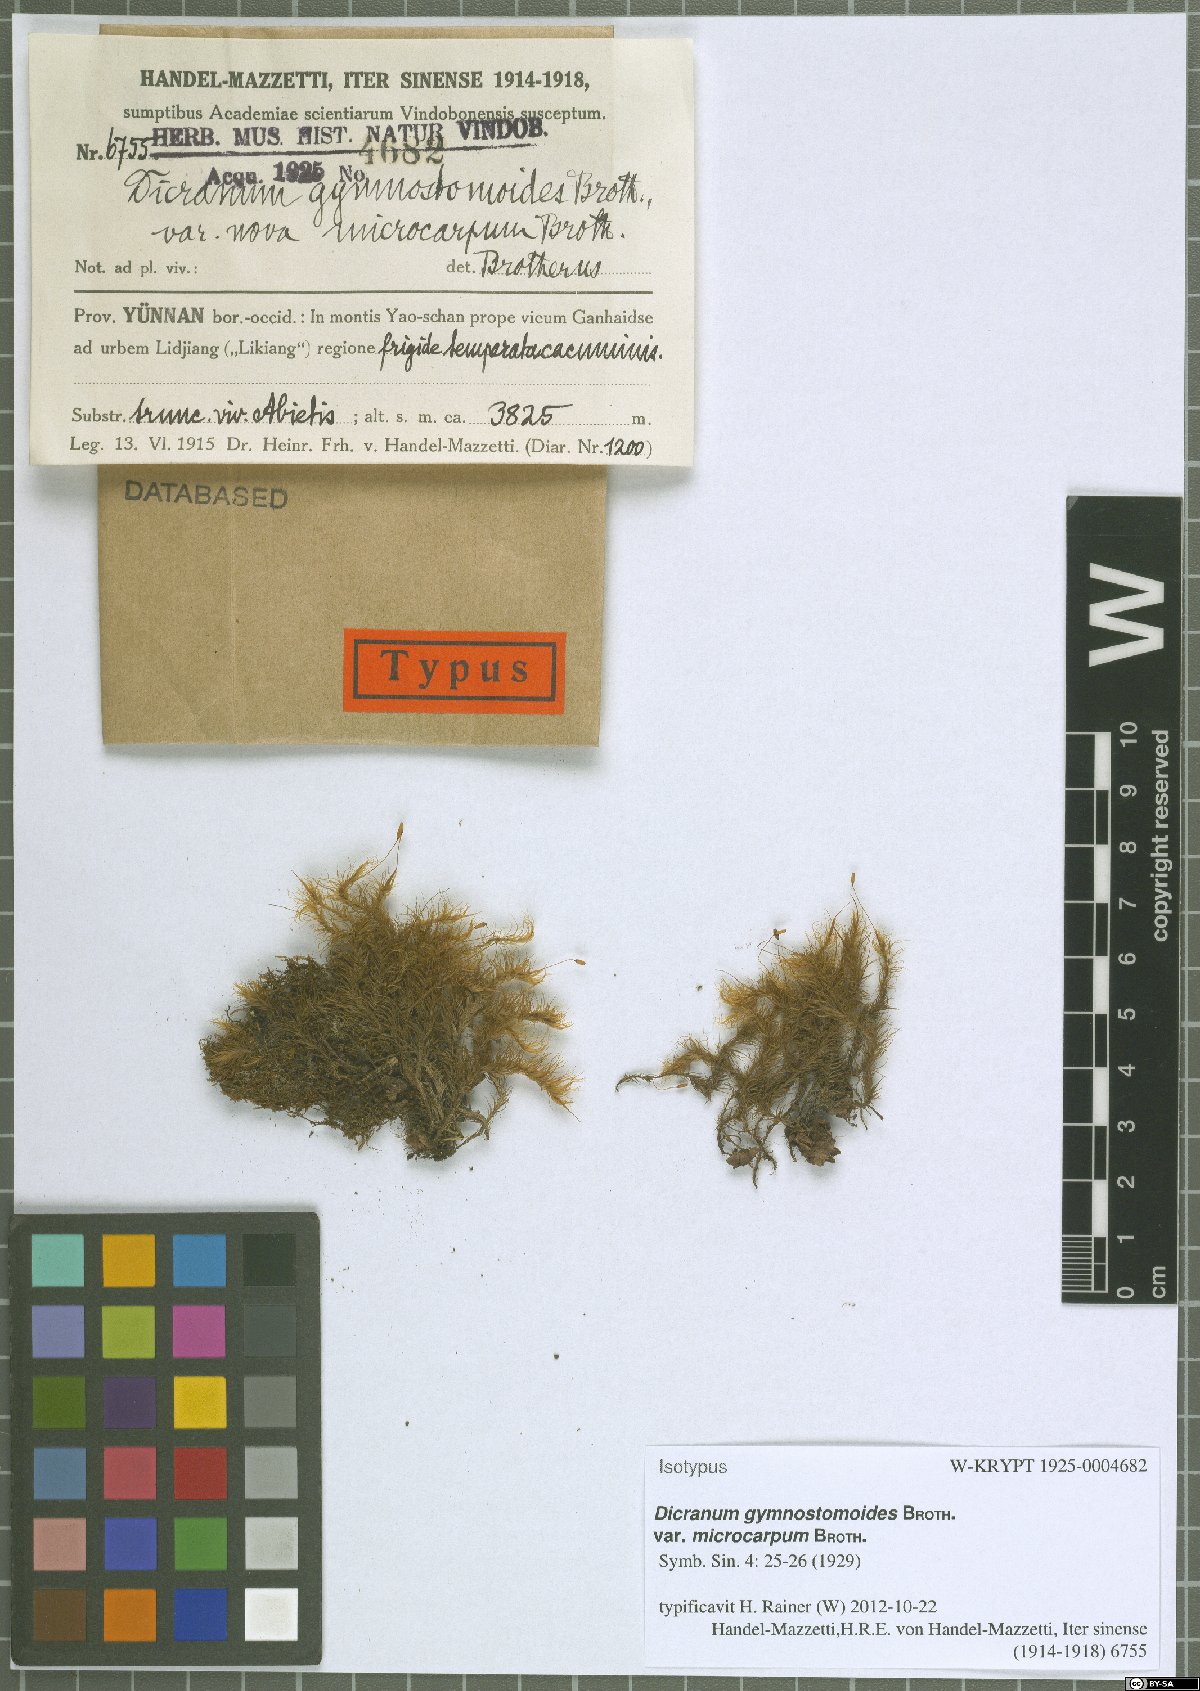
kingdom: Plantae
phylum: Bryophyta
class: Bryopsida
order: Dicranales
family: Dicranaceae
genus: Pseudochorisodontium
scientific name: Pseudochorisodontium gymnostomum
